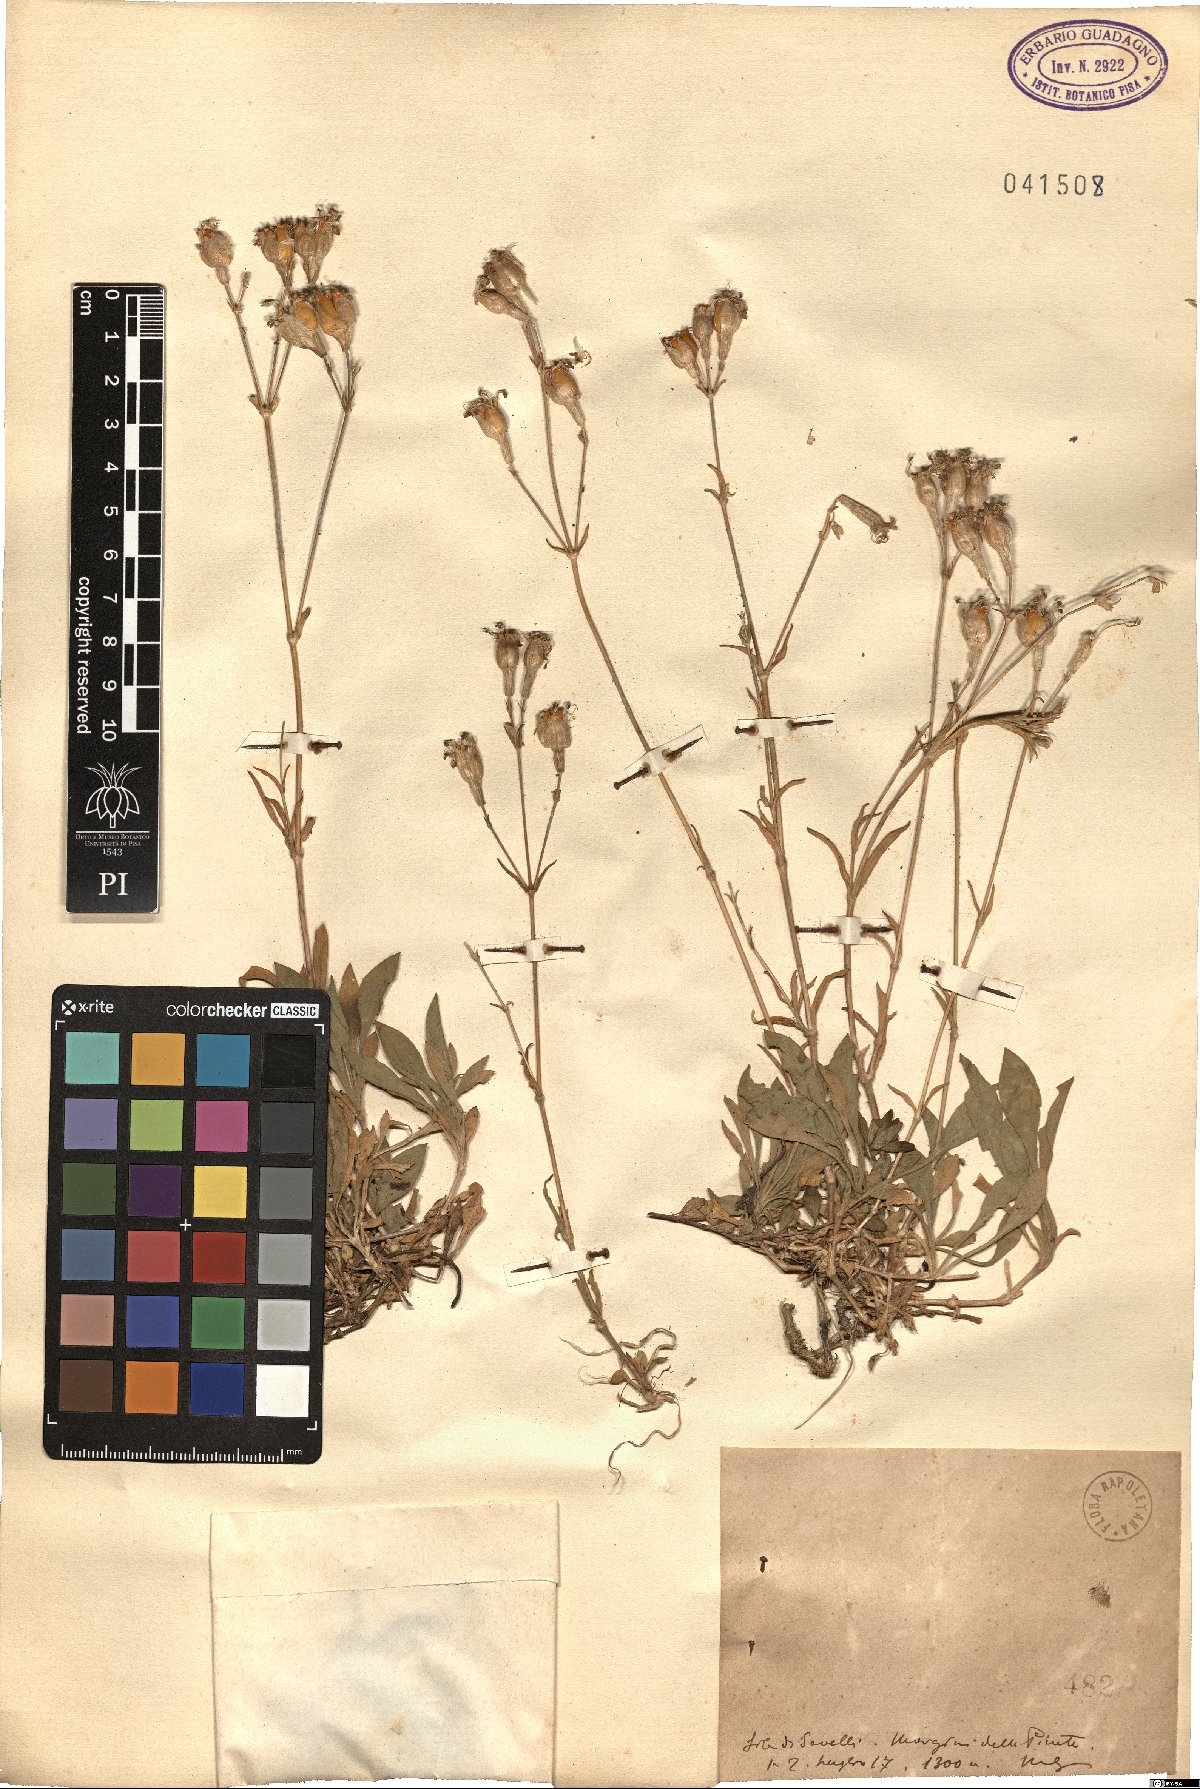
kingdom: Plantae
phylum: Tracheophyta
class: Magnoliopsida
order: Caryophyllales
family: Caryophyllaceae
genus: Silene
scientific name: Silene
